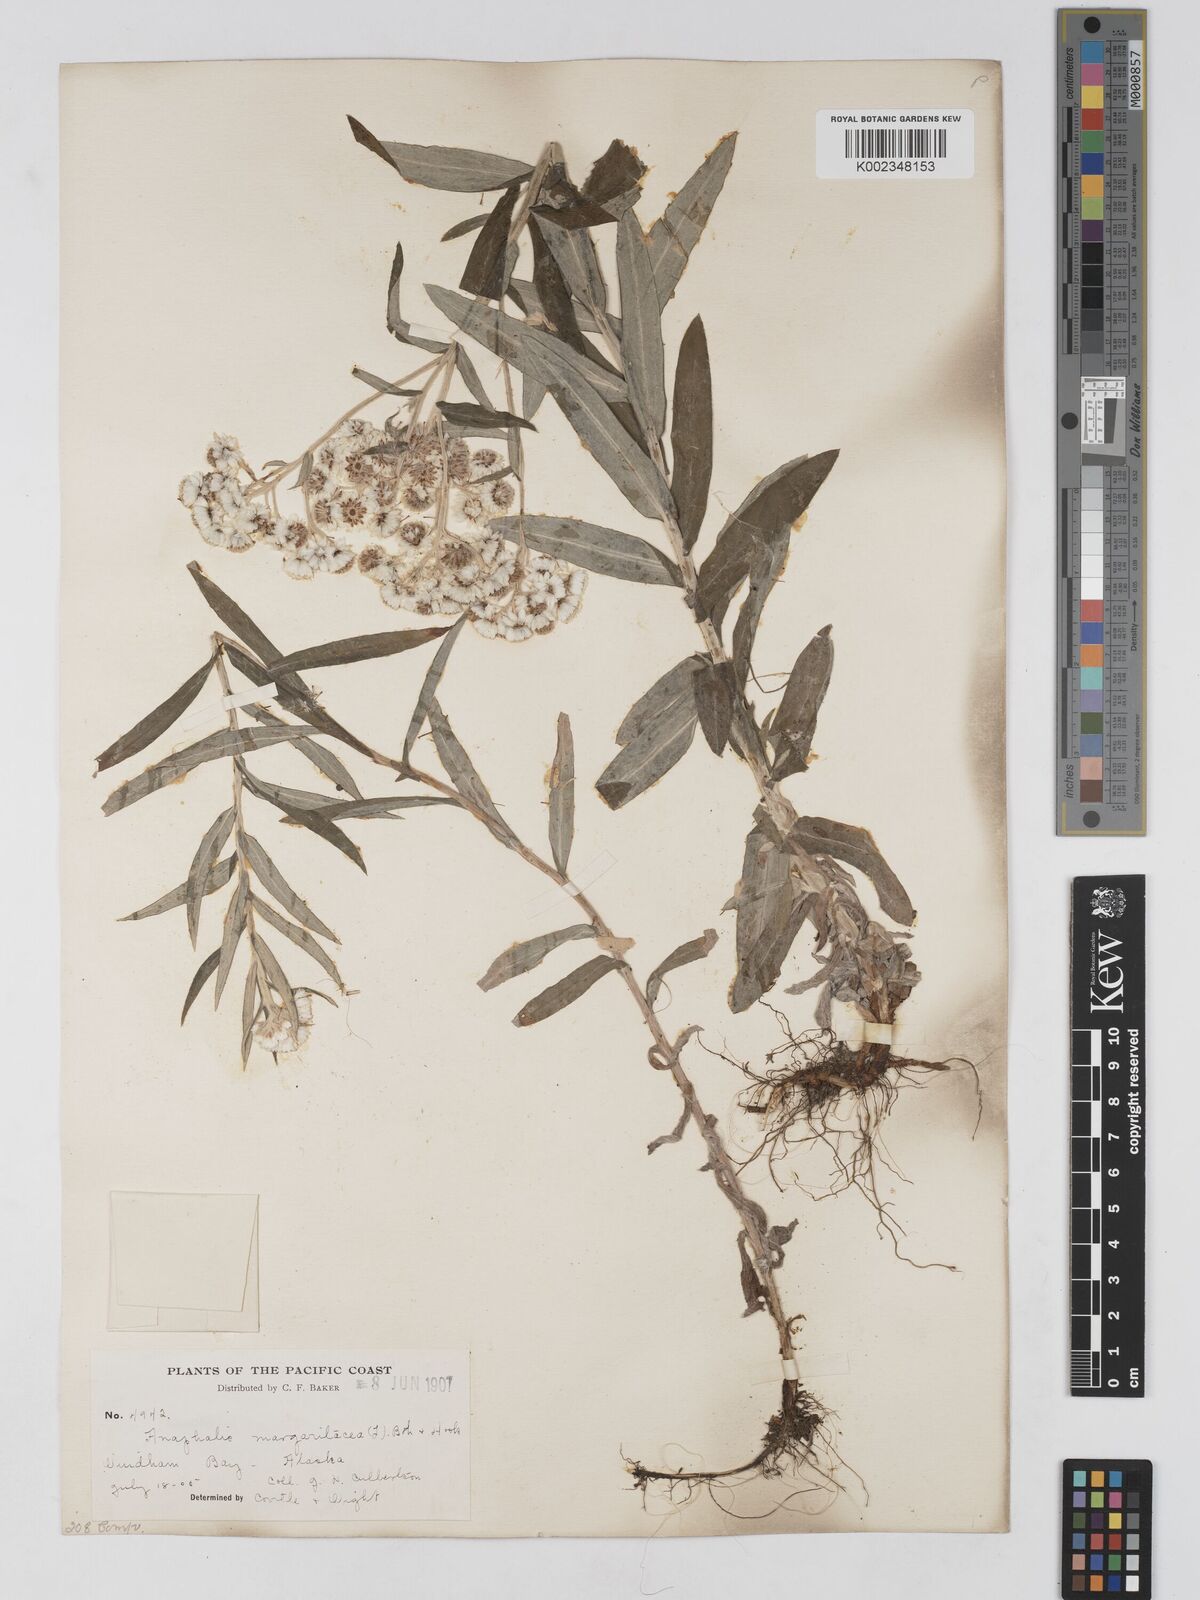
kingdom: Plantae
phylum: Tracheophyta
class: Magnoliopsida
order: Asterales
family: Asteraceae
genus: Anaphalis
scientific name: Anaphalis margaritacea
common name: Pearly everlasting
